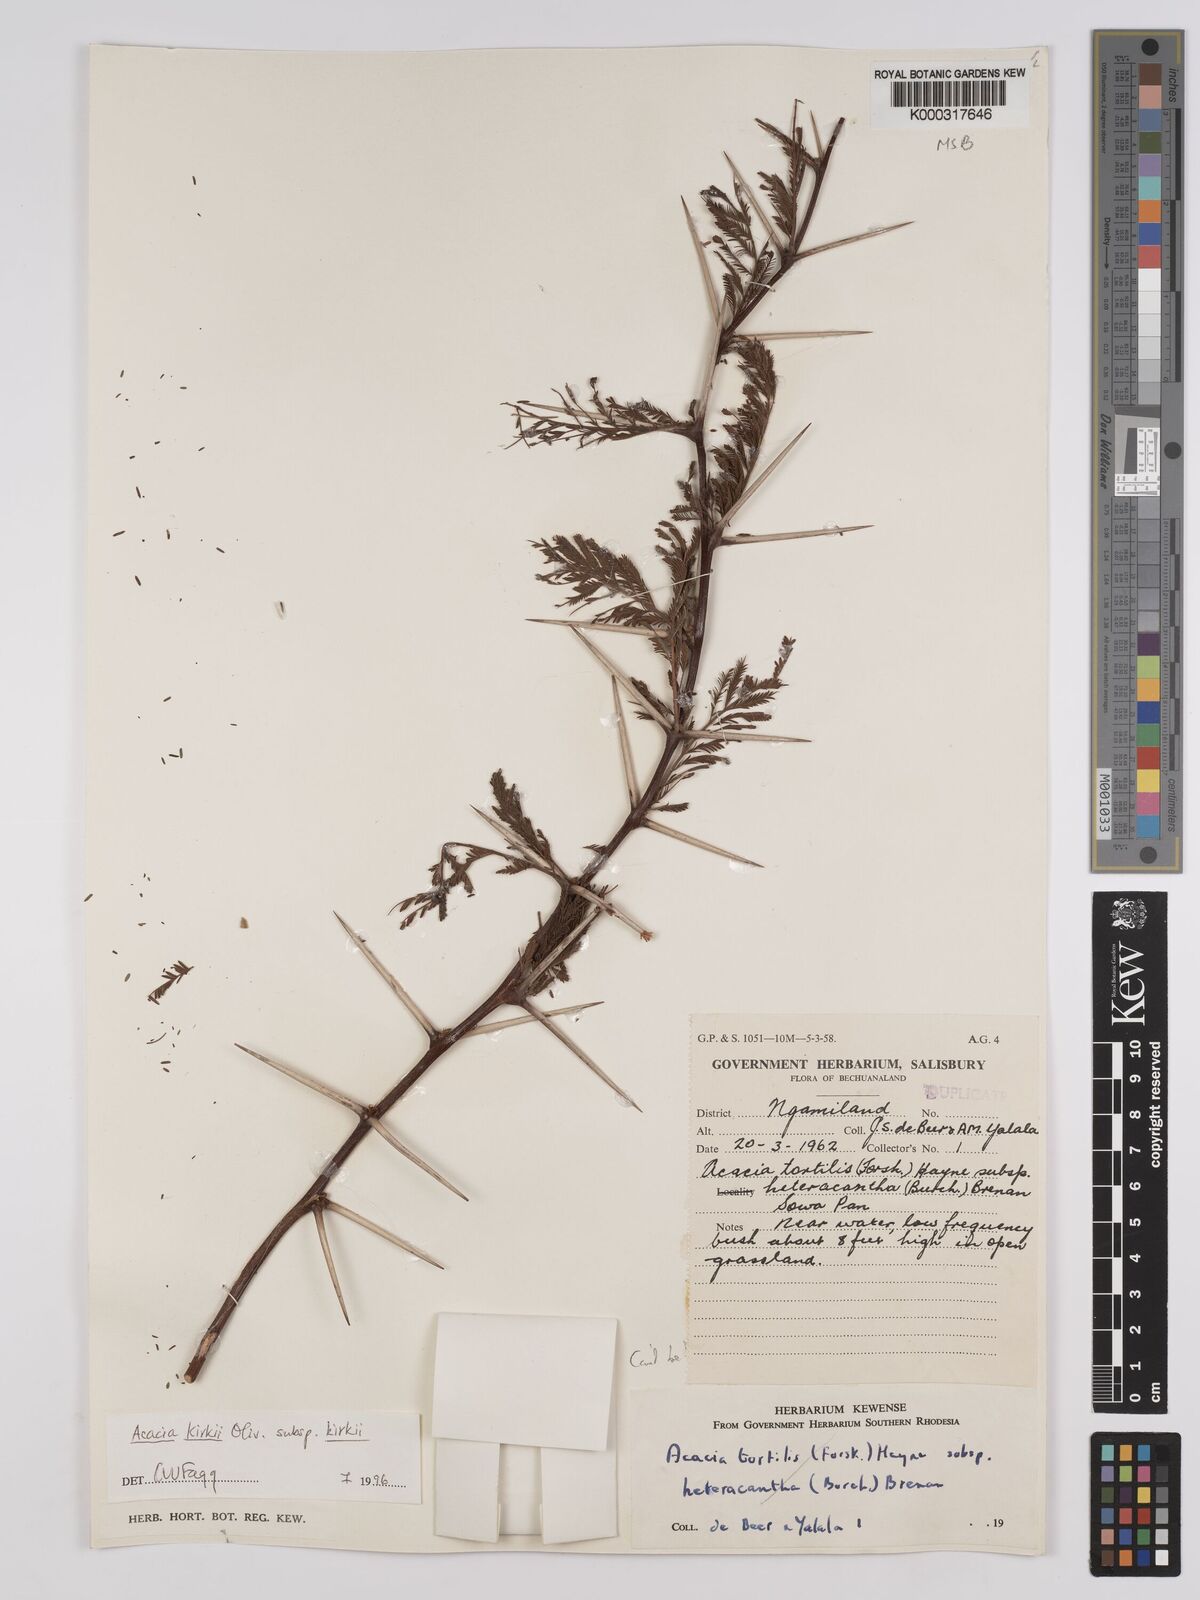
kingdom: Plantae
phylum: Tracheophyta
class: Magnoliopsida
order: Fabales
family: Fabaceae
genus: Vachellia
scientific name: Vachellia kirkii
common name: Flood-plain acacia
